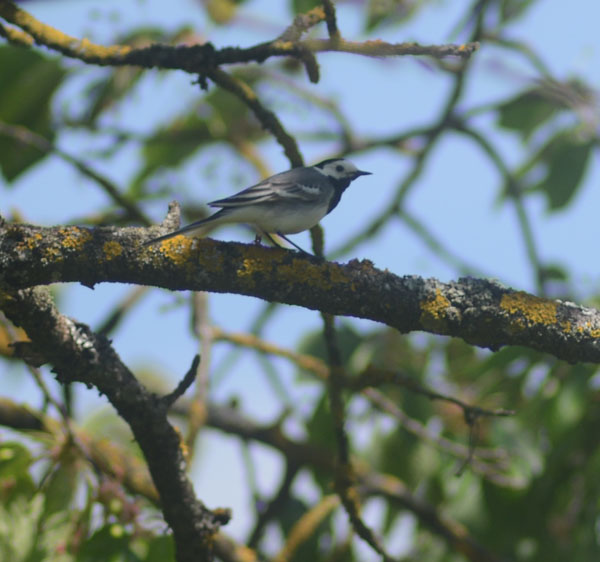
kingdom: Animalia
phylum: Chordata
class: Aves
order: Passeriformes
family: Motacillidae
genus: Motacilla
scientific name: Motacilla alba
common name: White wagtail
